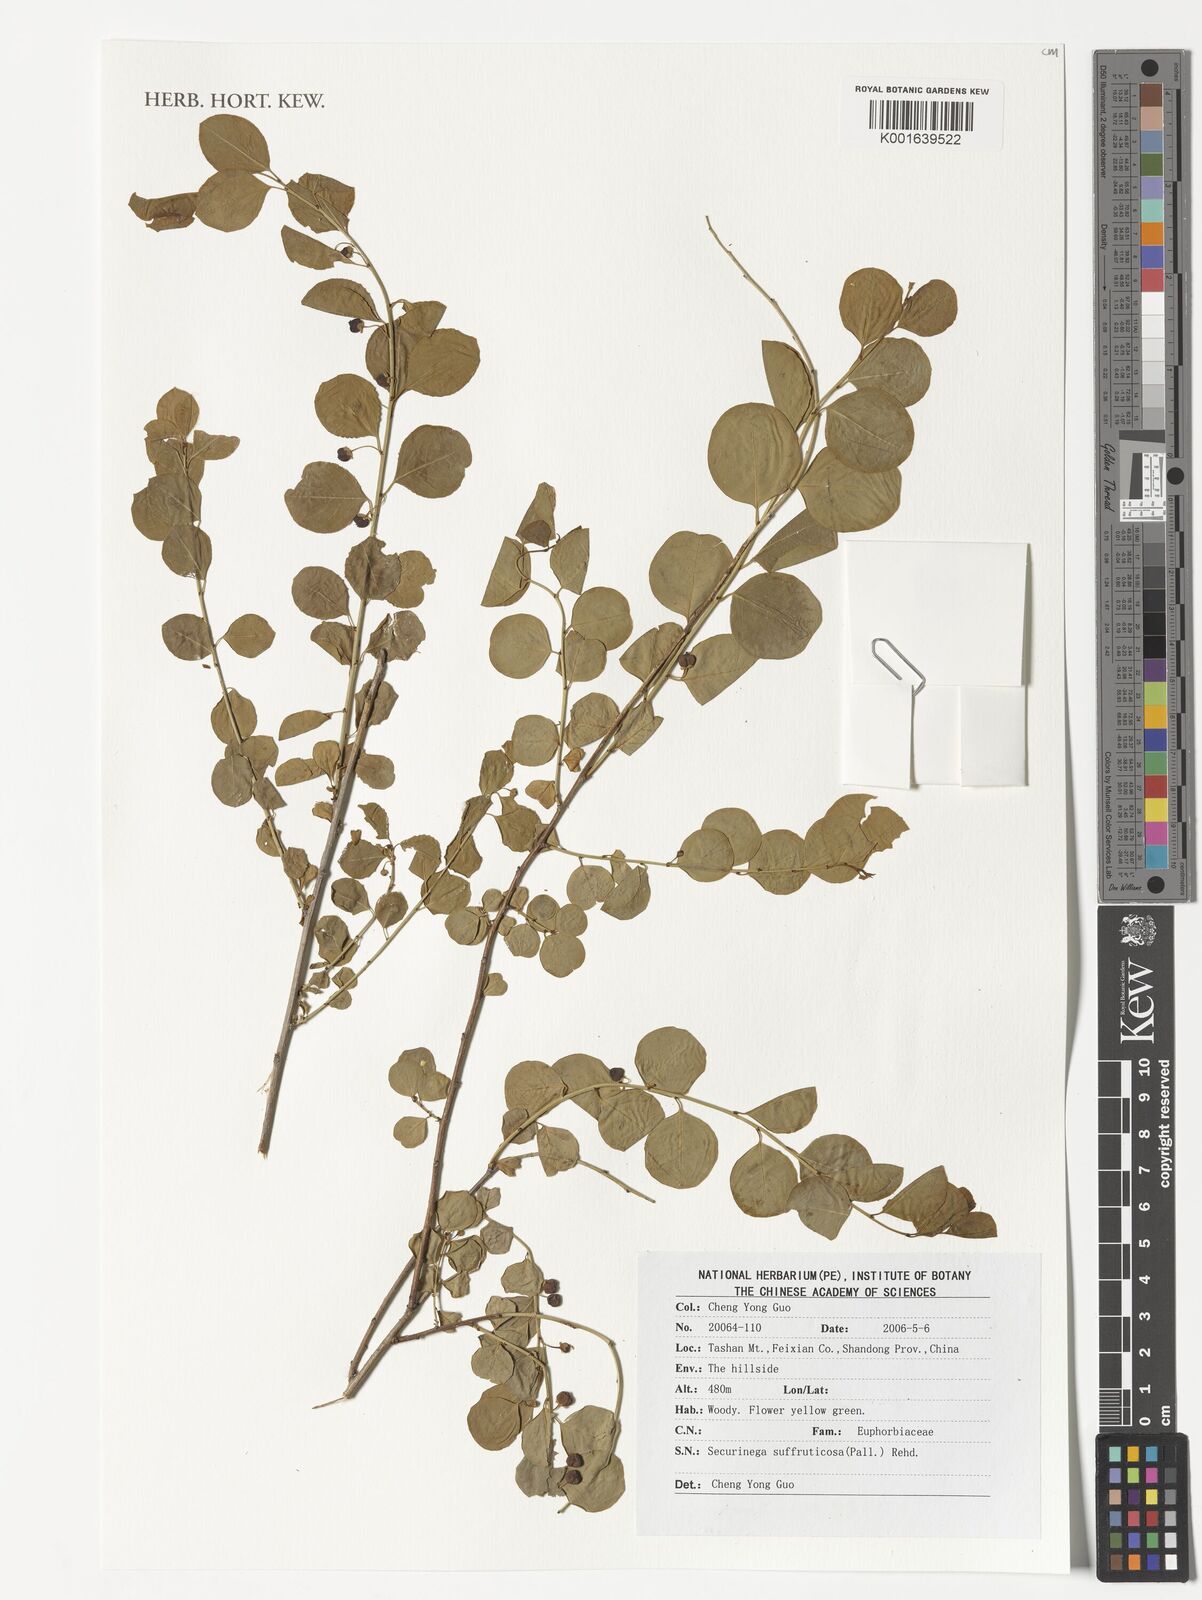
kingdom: Plantae
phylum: Tracheophyta
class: Magnoliopsida
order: Malpighiales
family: Phyllanthaceae
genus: Flueggea
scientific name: Flueggea suffruticosa
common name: Arching bushweed
